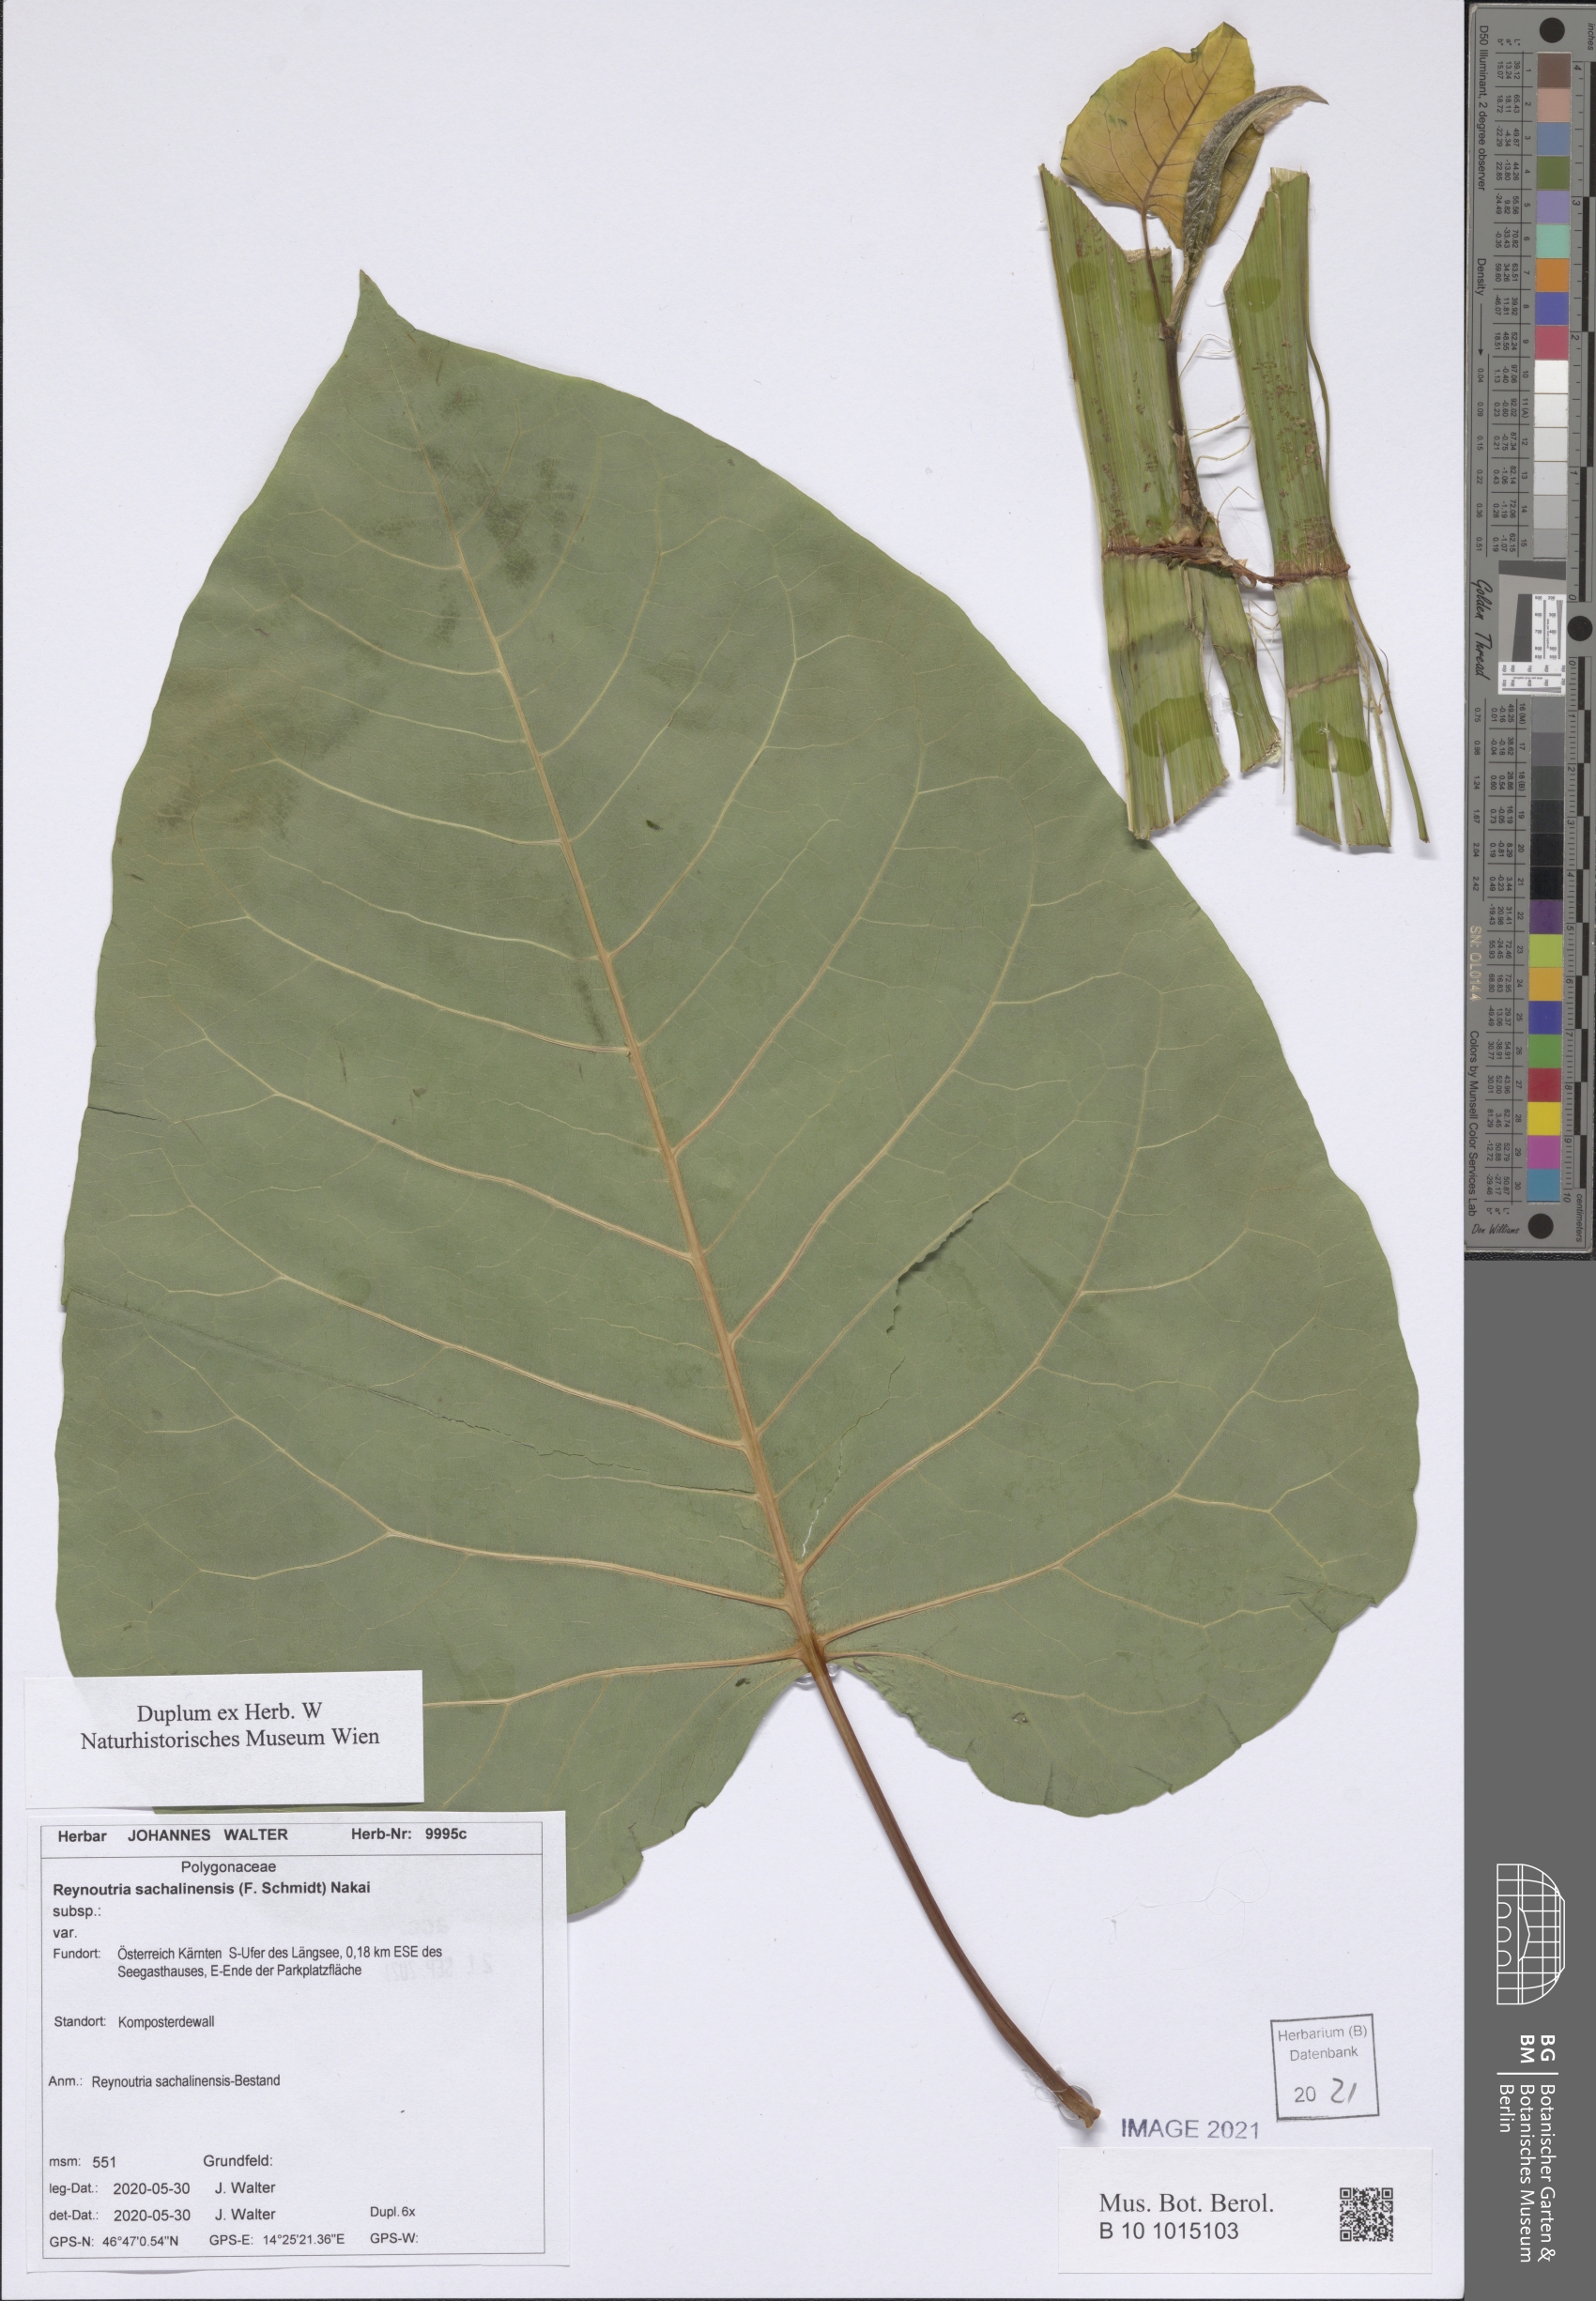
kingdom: Plantae
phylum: Tracheophyta
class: Magnoliopsida
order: Caryophyllales
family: Polygonaceae
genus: Reynoutria
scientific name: Reynoutria japonica
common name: Japanese knotweed
